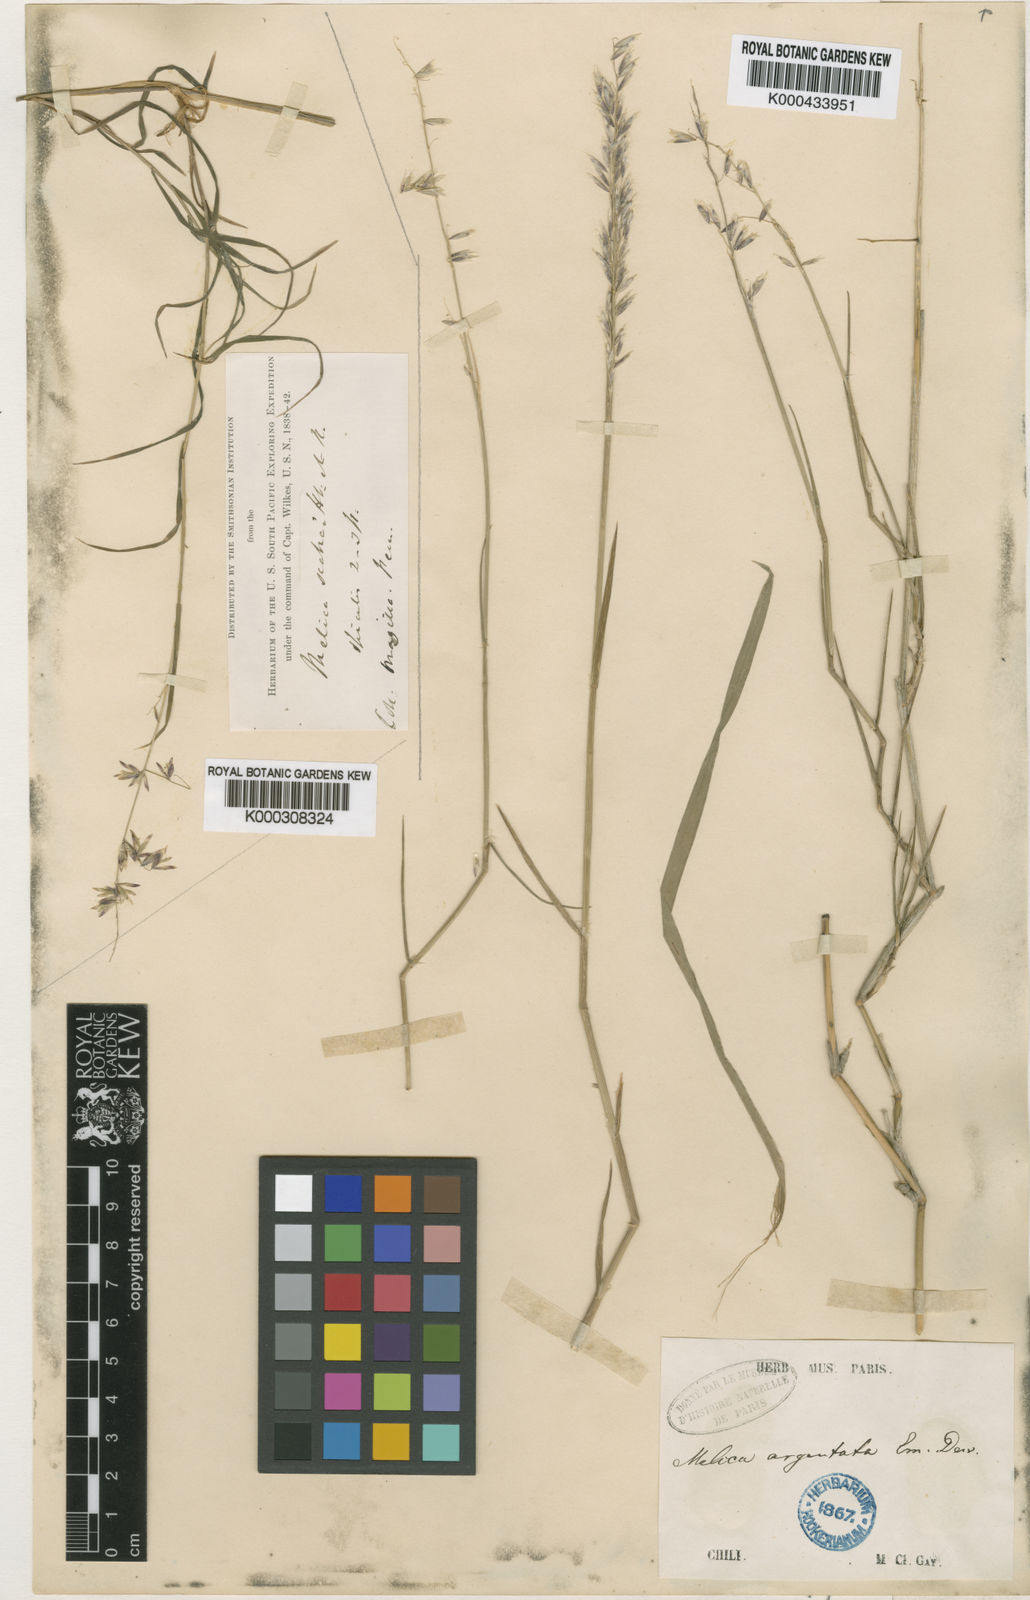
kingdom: Plantae
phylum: Tracheophyta
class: Liliopsida
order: Poales
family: Poaceae
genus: Melica
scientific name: Melica argentata
